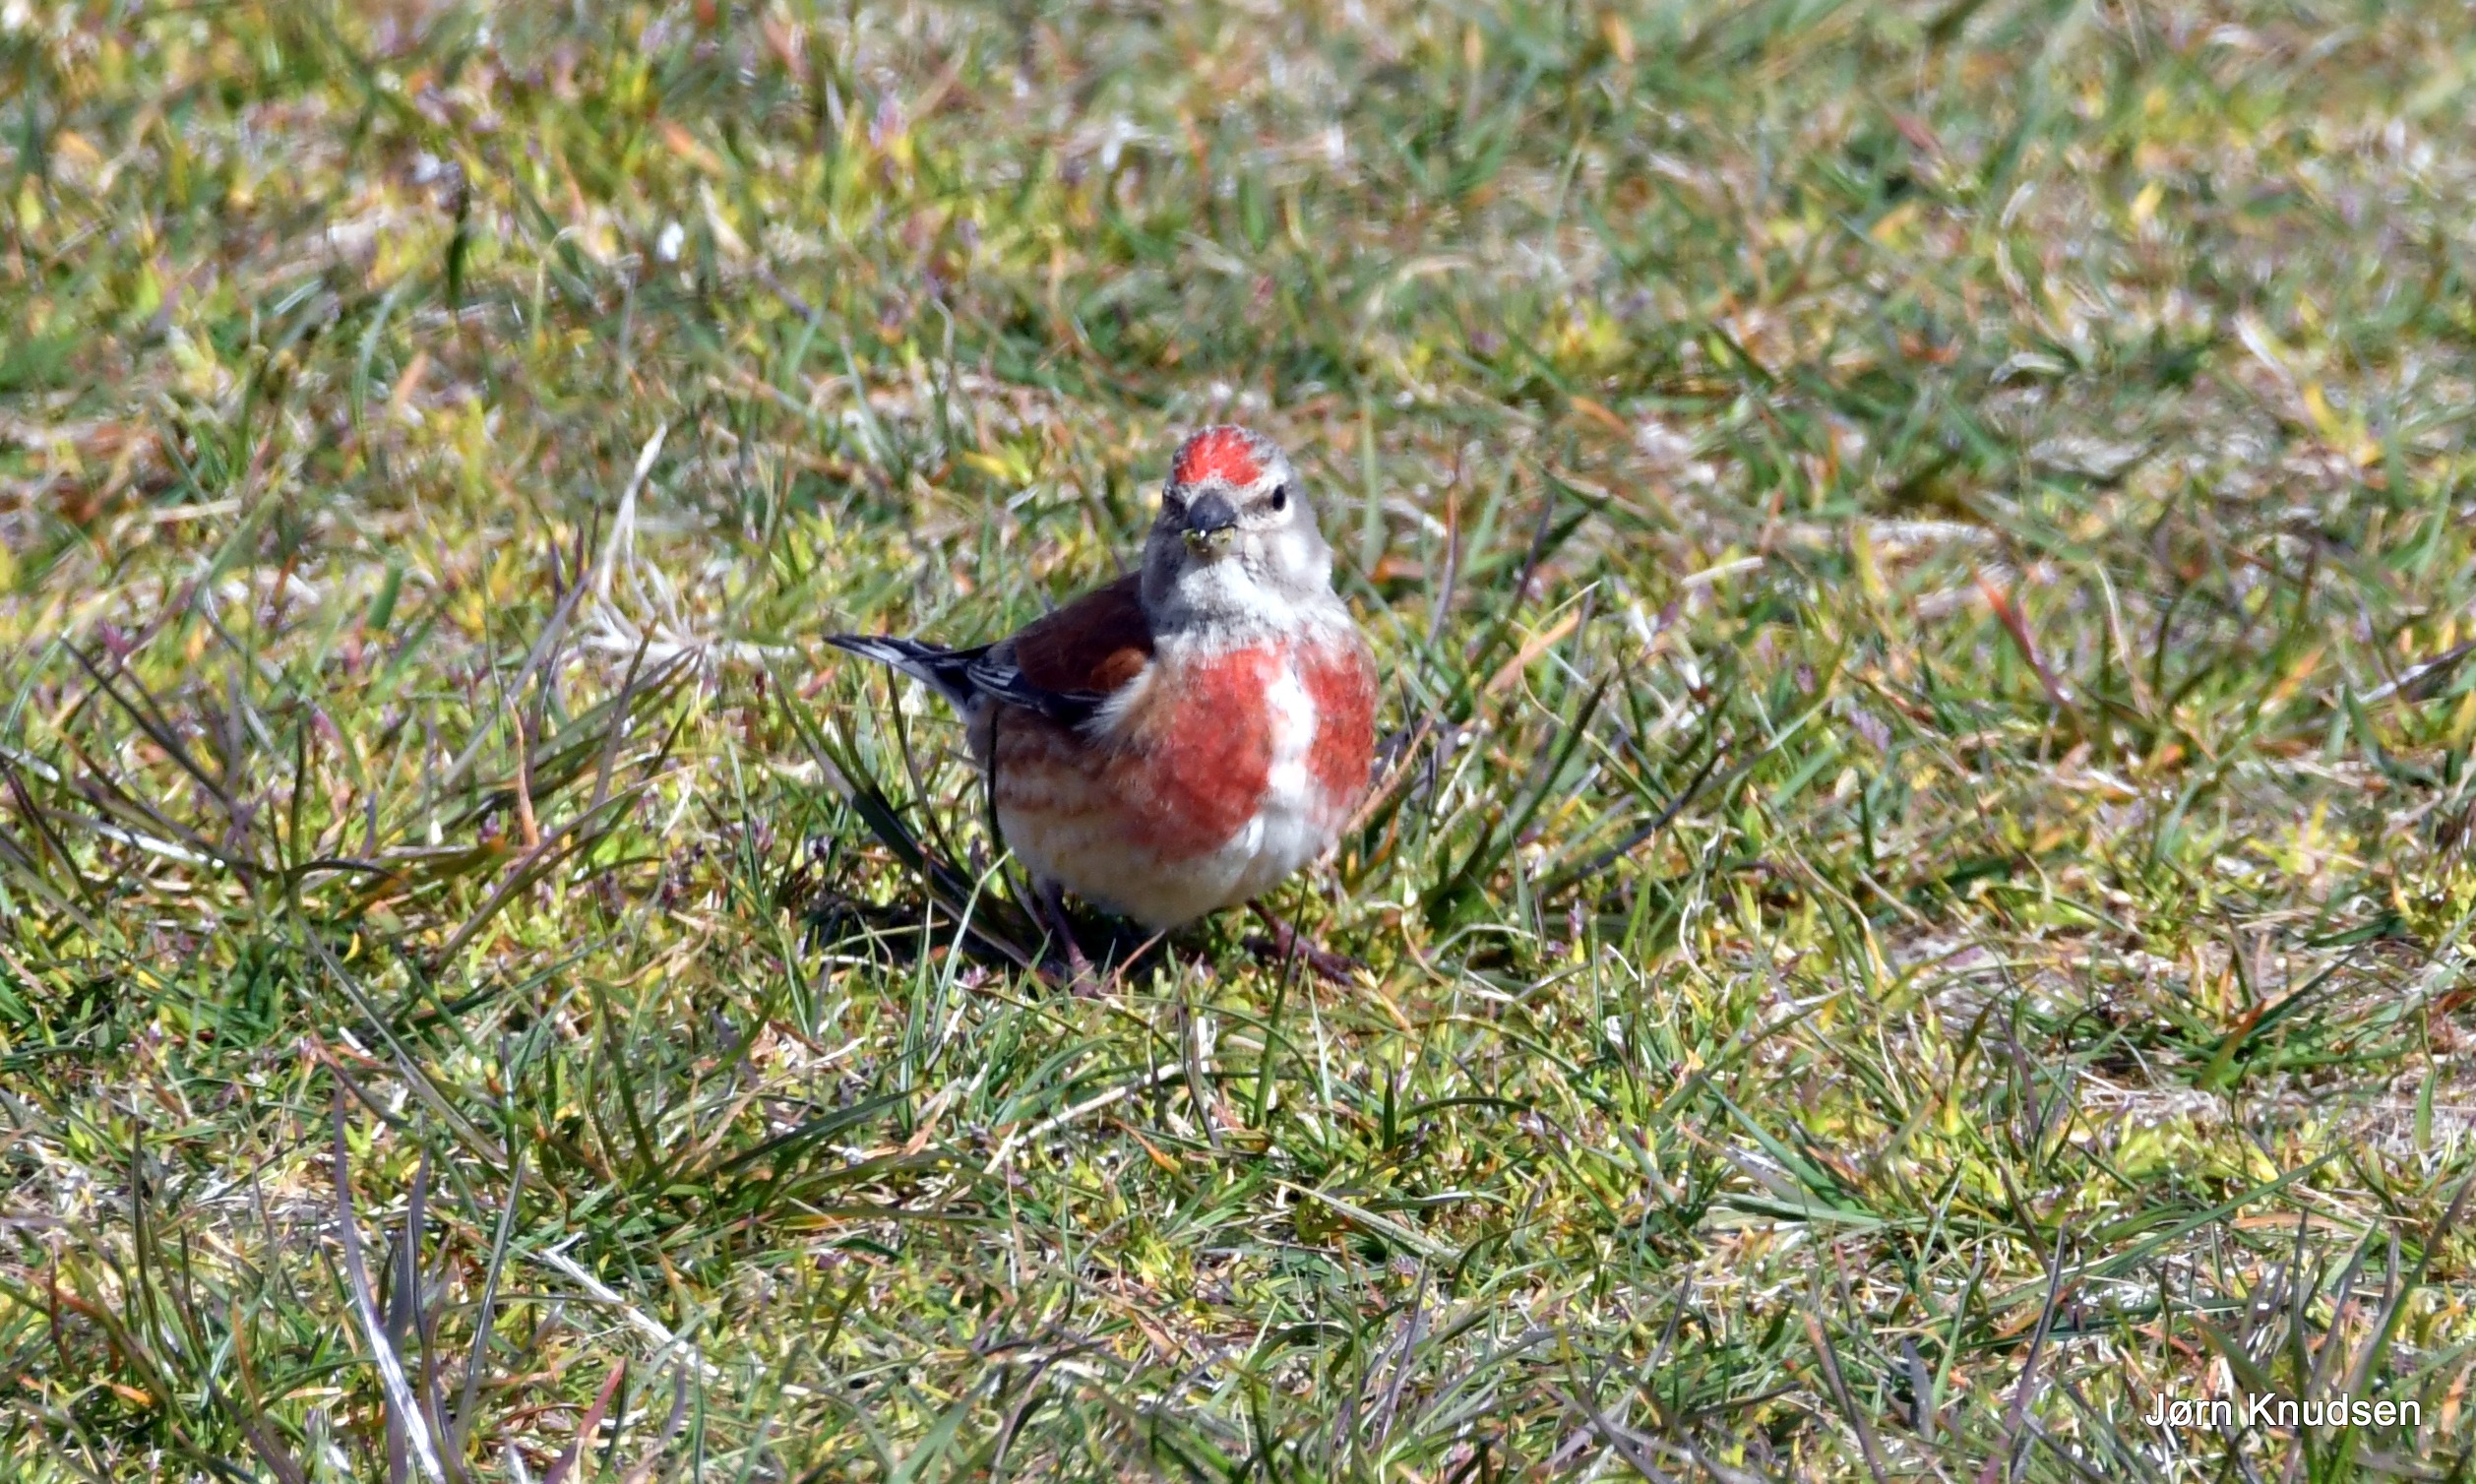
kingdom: Animalia
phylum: Chordata
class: Aves
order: Passeriformes
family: Fringillidae
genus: Linaria
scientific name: Linaria cannabina
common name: Tornirisk
